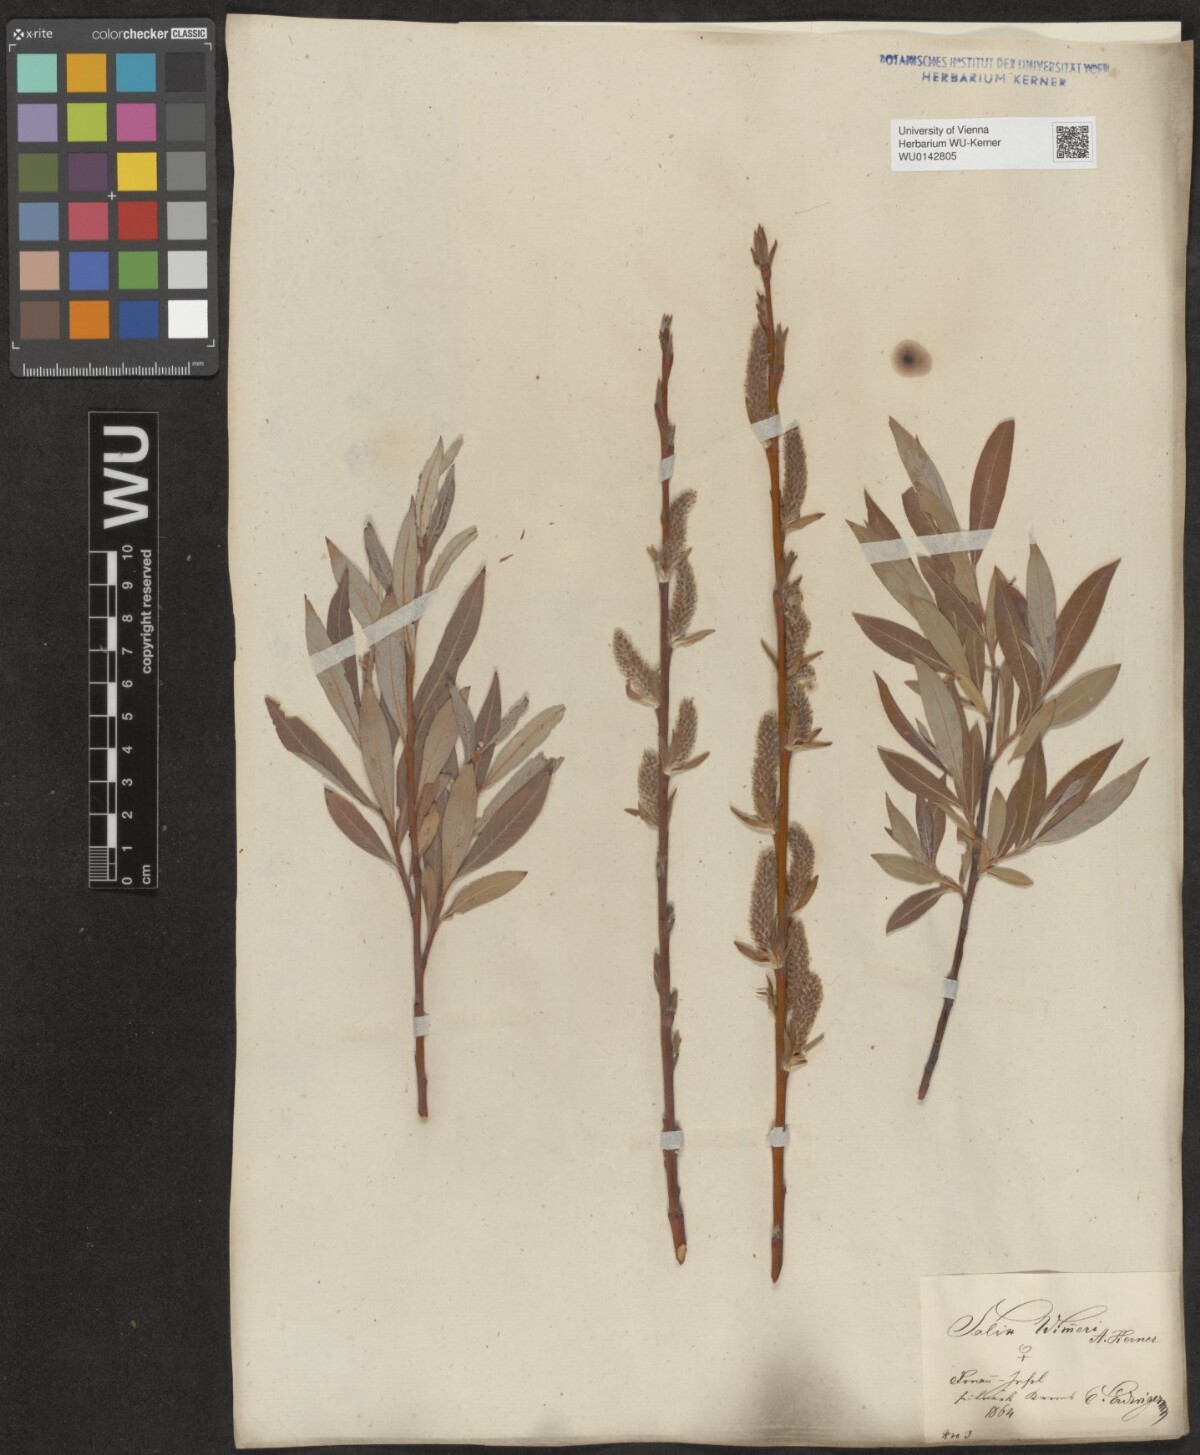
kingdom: Plantae
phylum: Tracheophyta
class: Magnoliopsida
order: Malpighiales
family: Salicaceae
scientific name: Salicaceae
